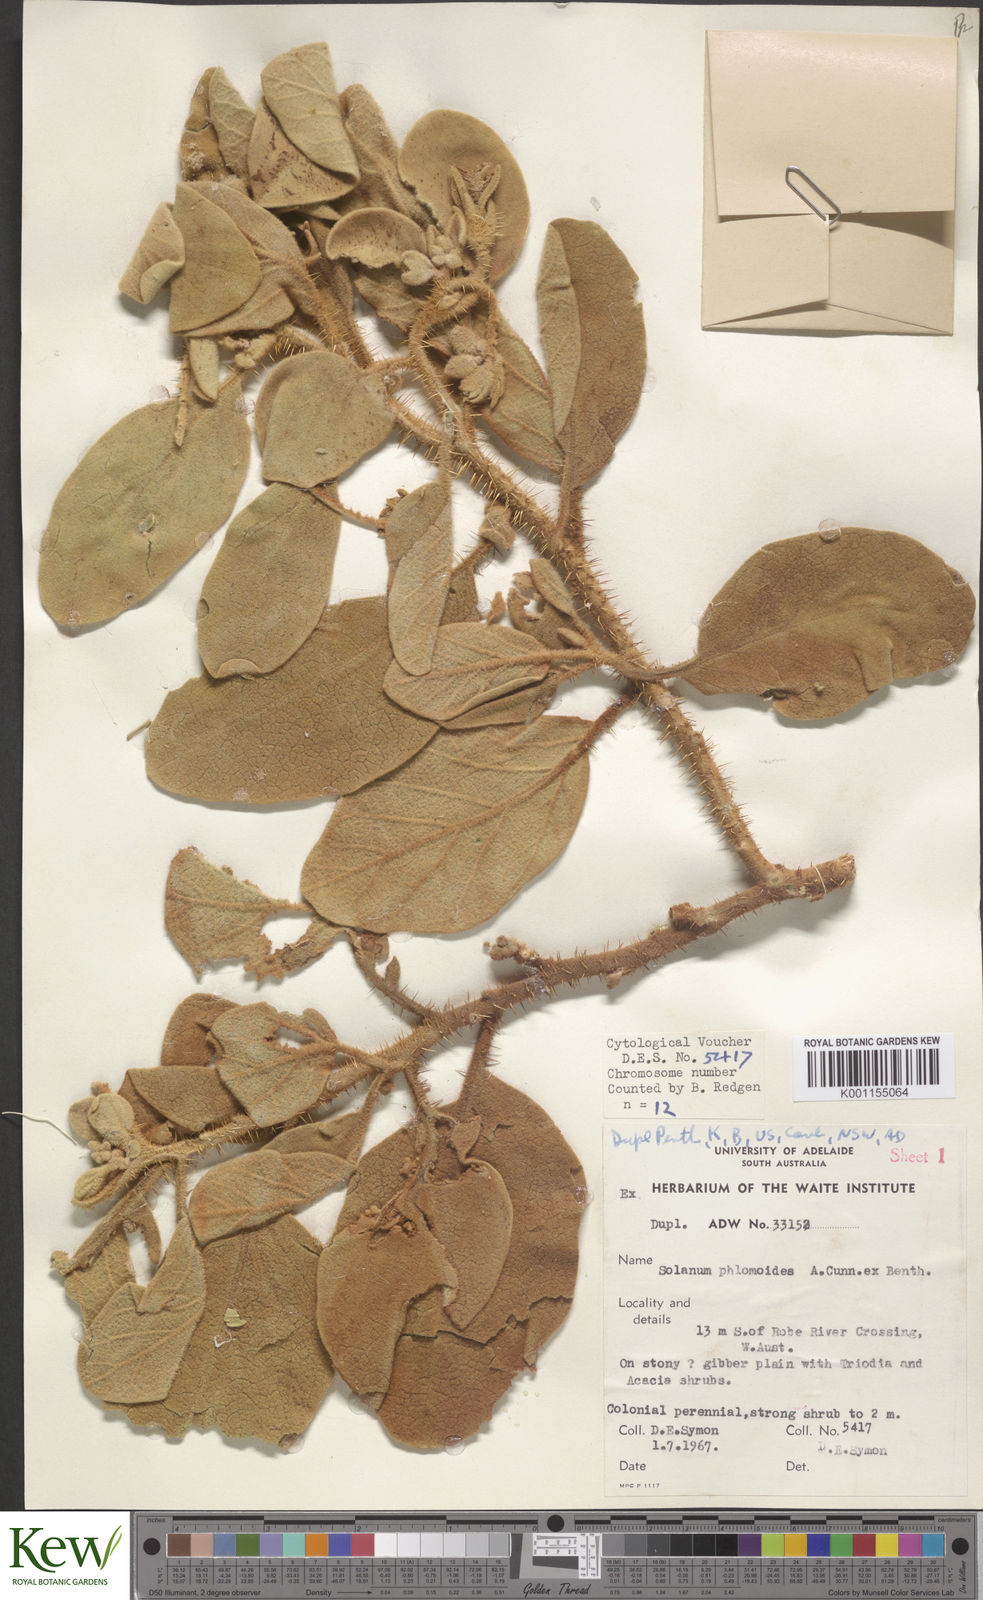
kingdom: Plantae
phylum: Tracheophyta
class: Magnoliopsida
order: Solanales
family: Solanaceae
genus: Solanum
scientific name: Solanum phlomoides
